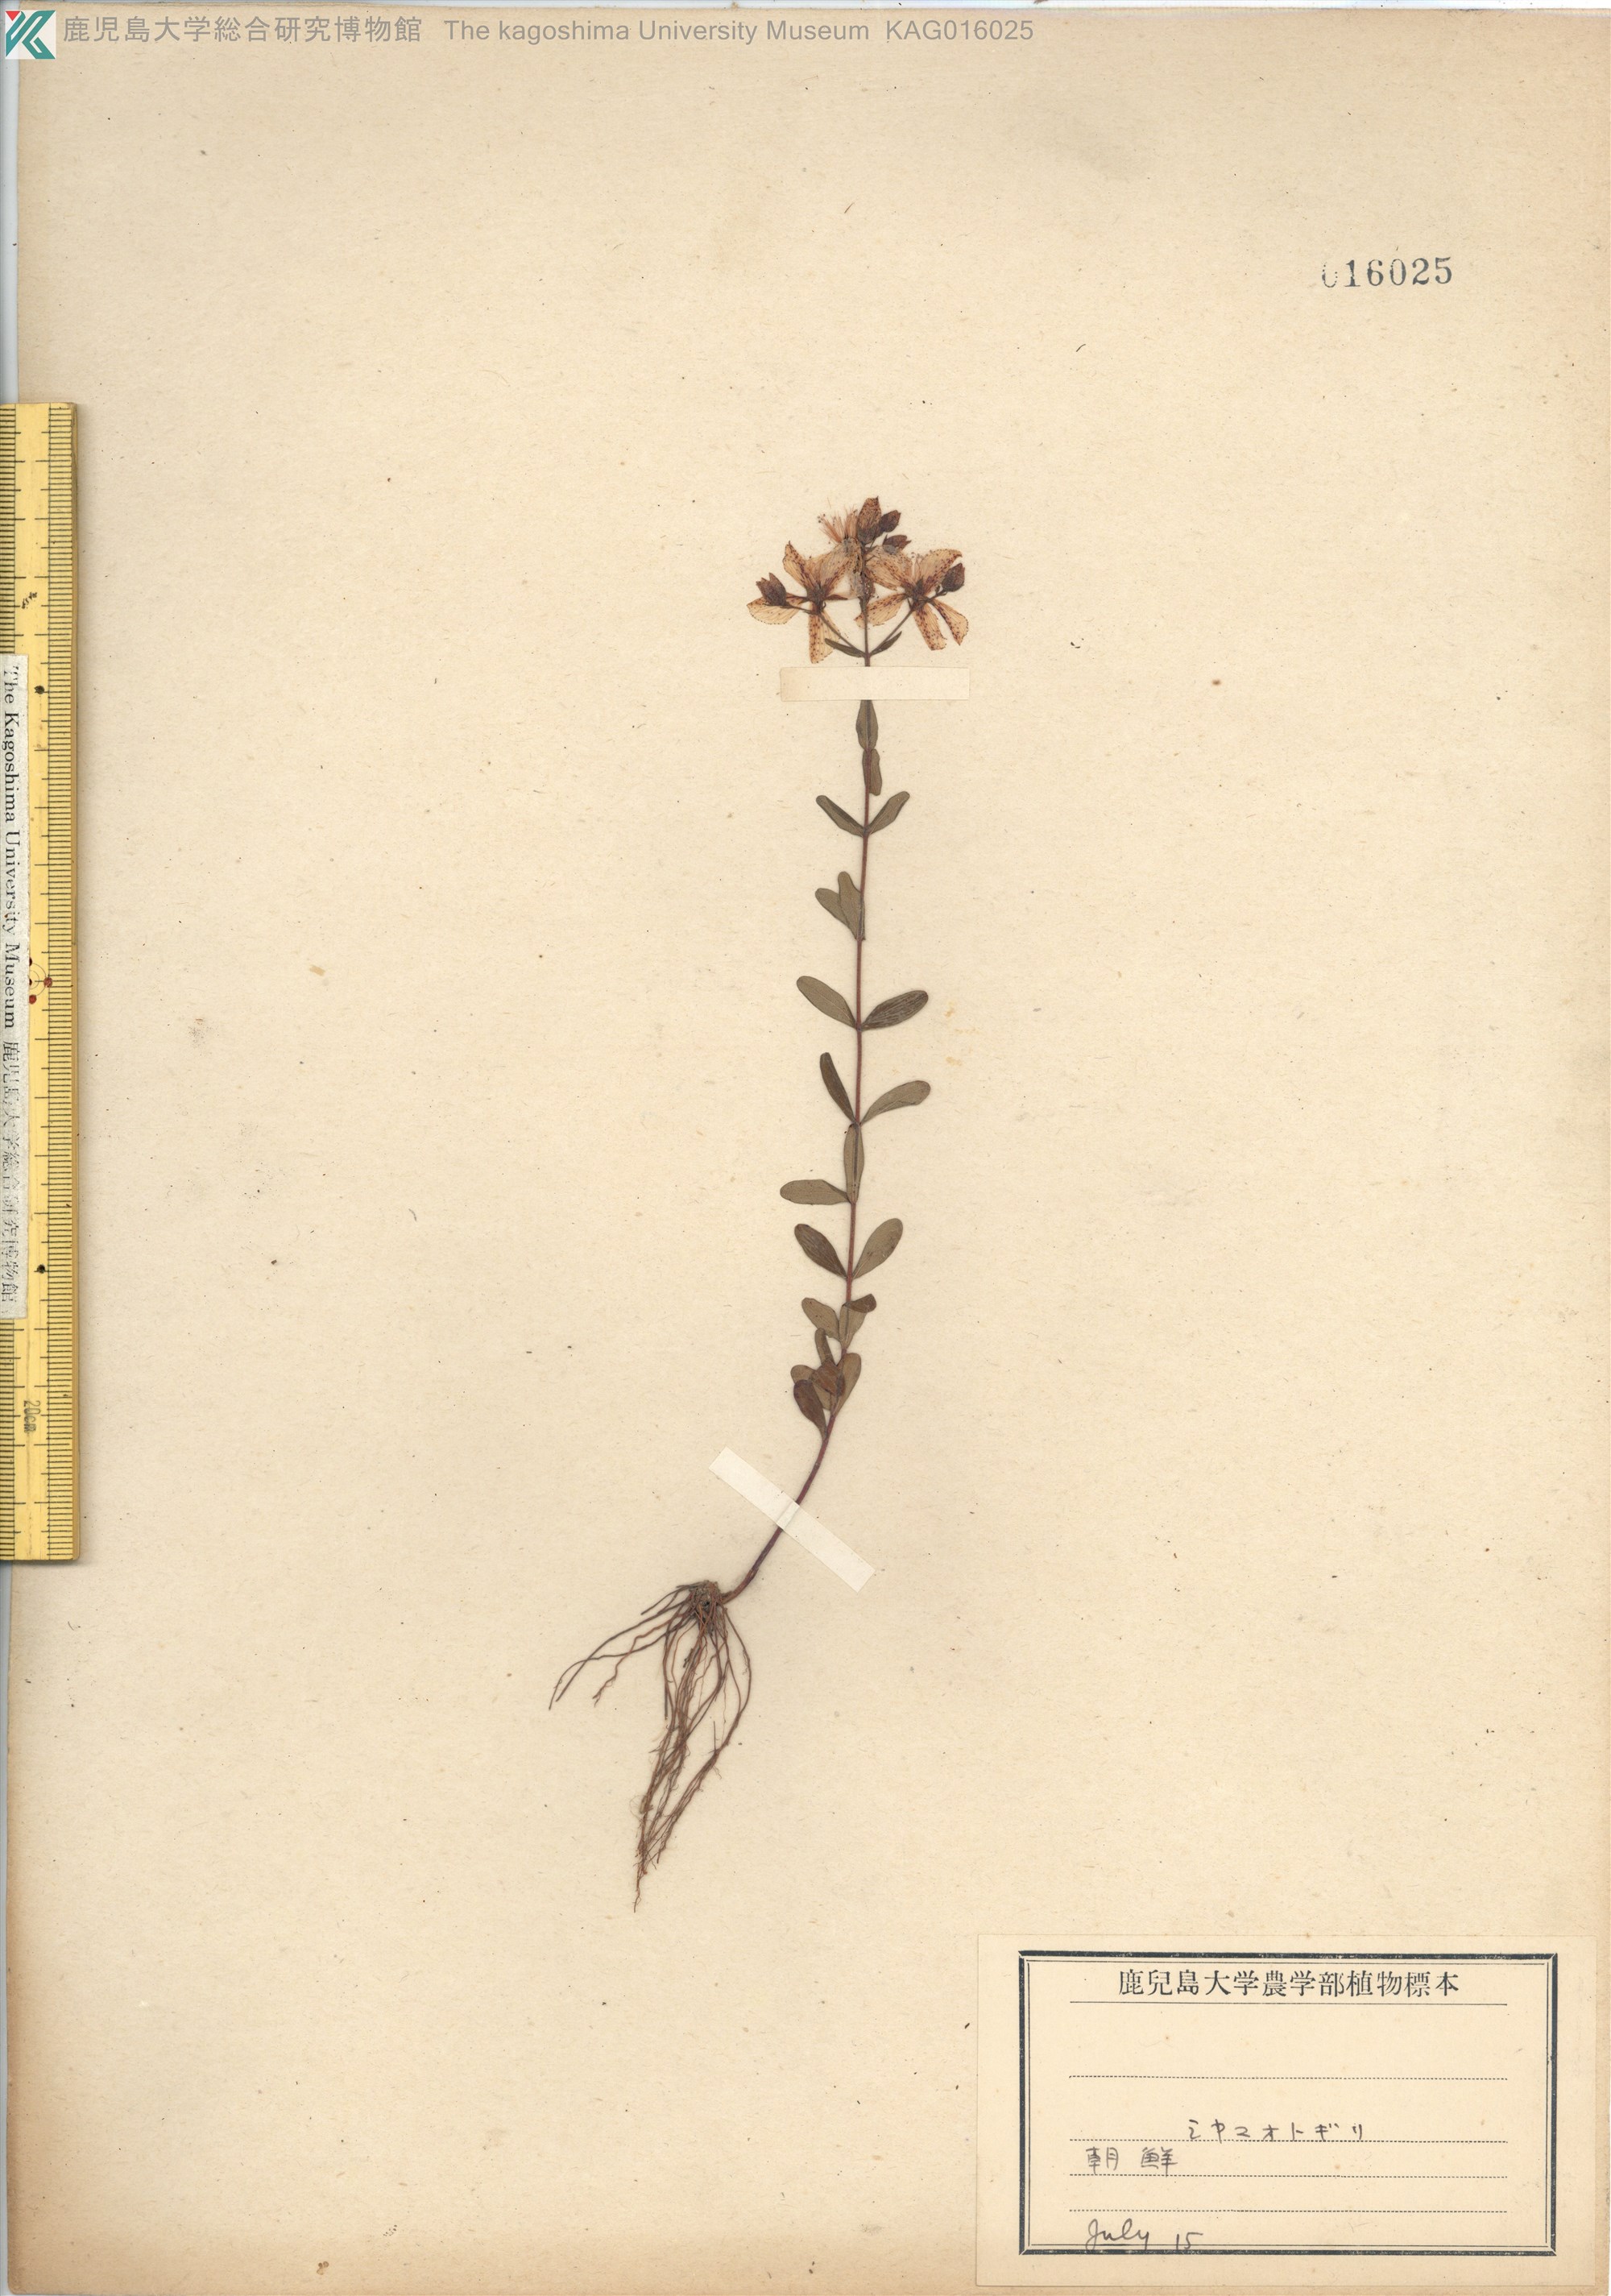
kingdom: Plantae
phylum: Tracheophyta
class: Magnoliopsida
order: Malpighiales
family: Hypericaceae
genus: Hypericum
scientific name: Hypericum kamtschaticum
